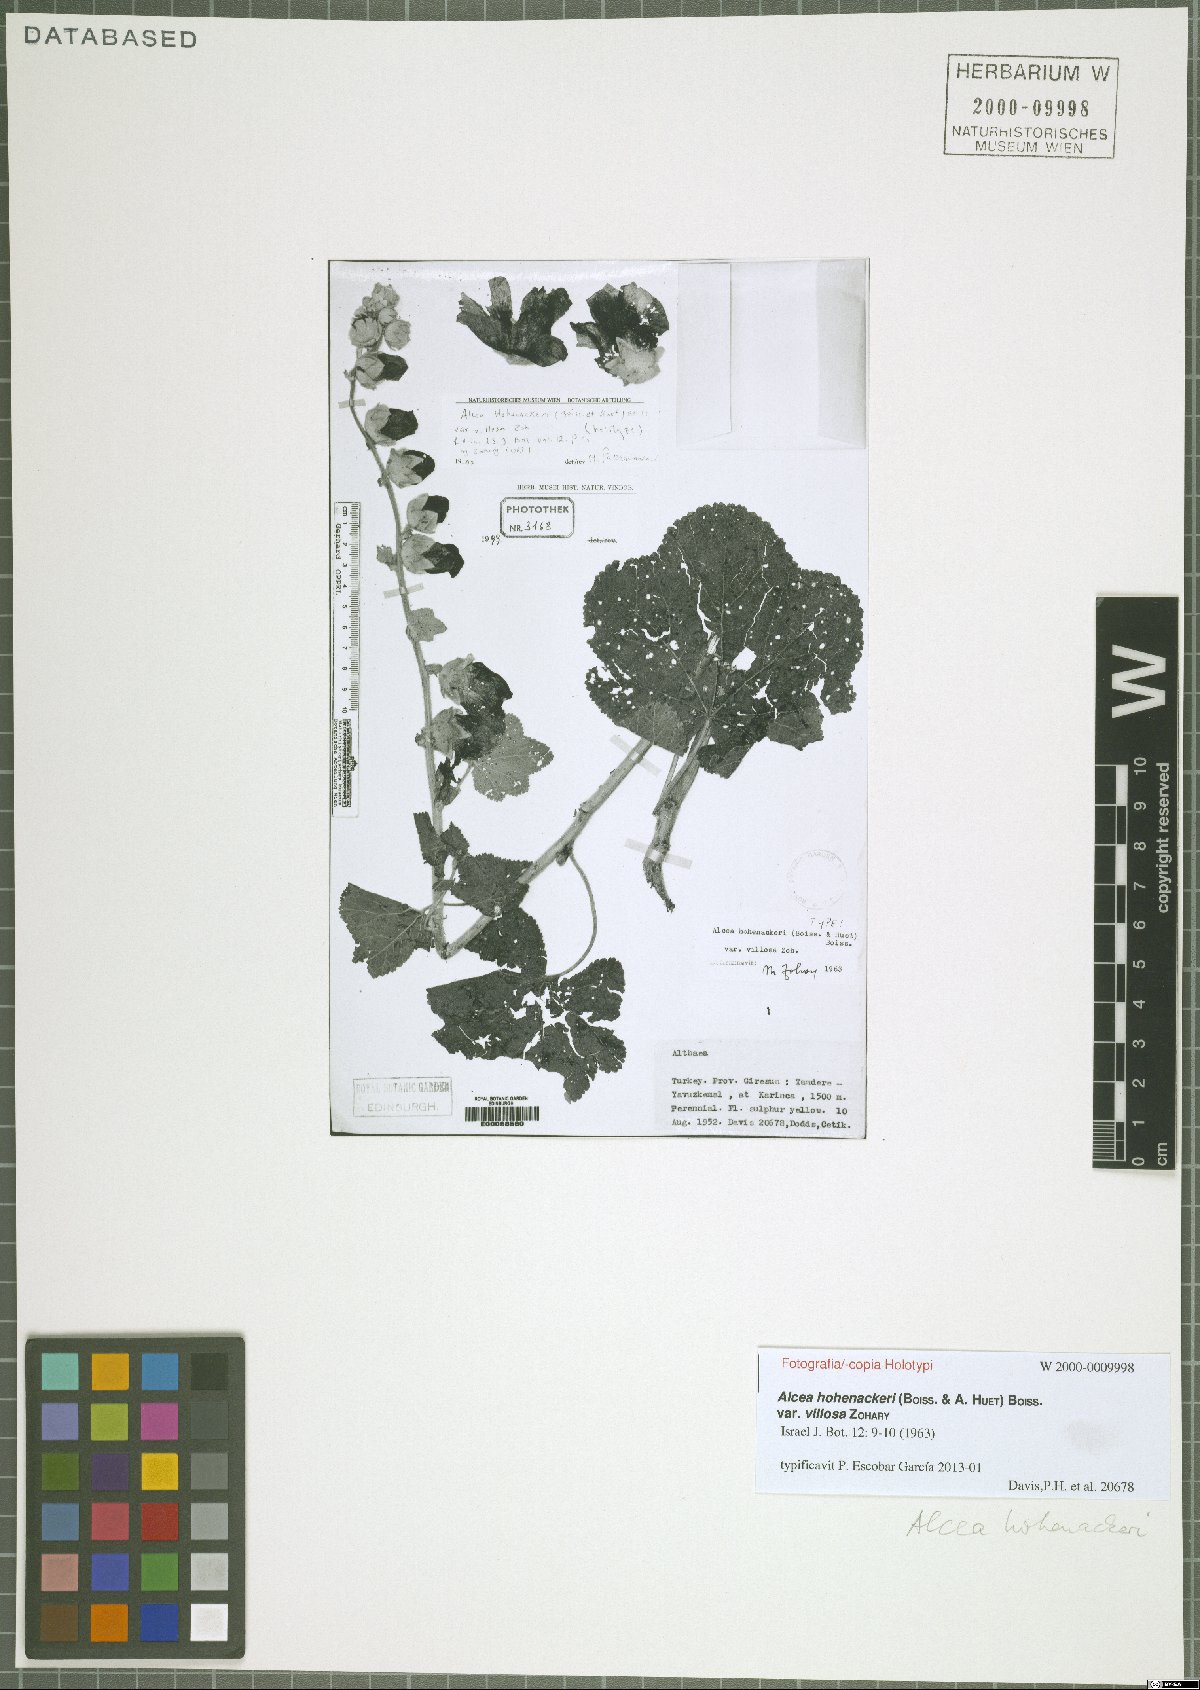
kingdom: Plantae
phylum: Tracheophyta
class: Magnoliopsida
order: Malvales
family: Malvaceae
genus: Alcea
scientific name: Alcea kurdica
